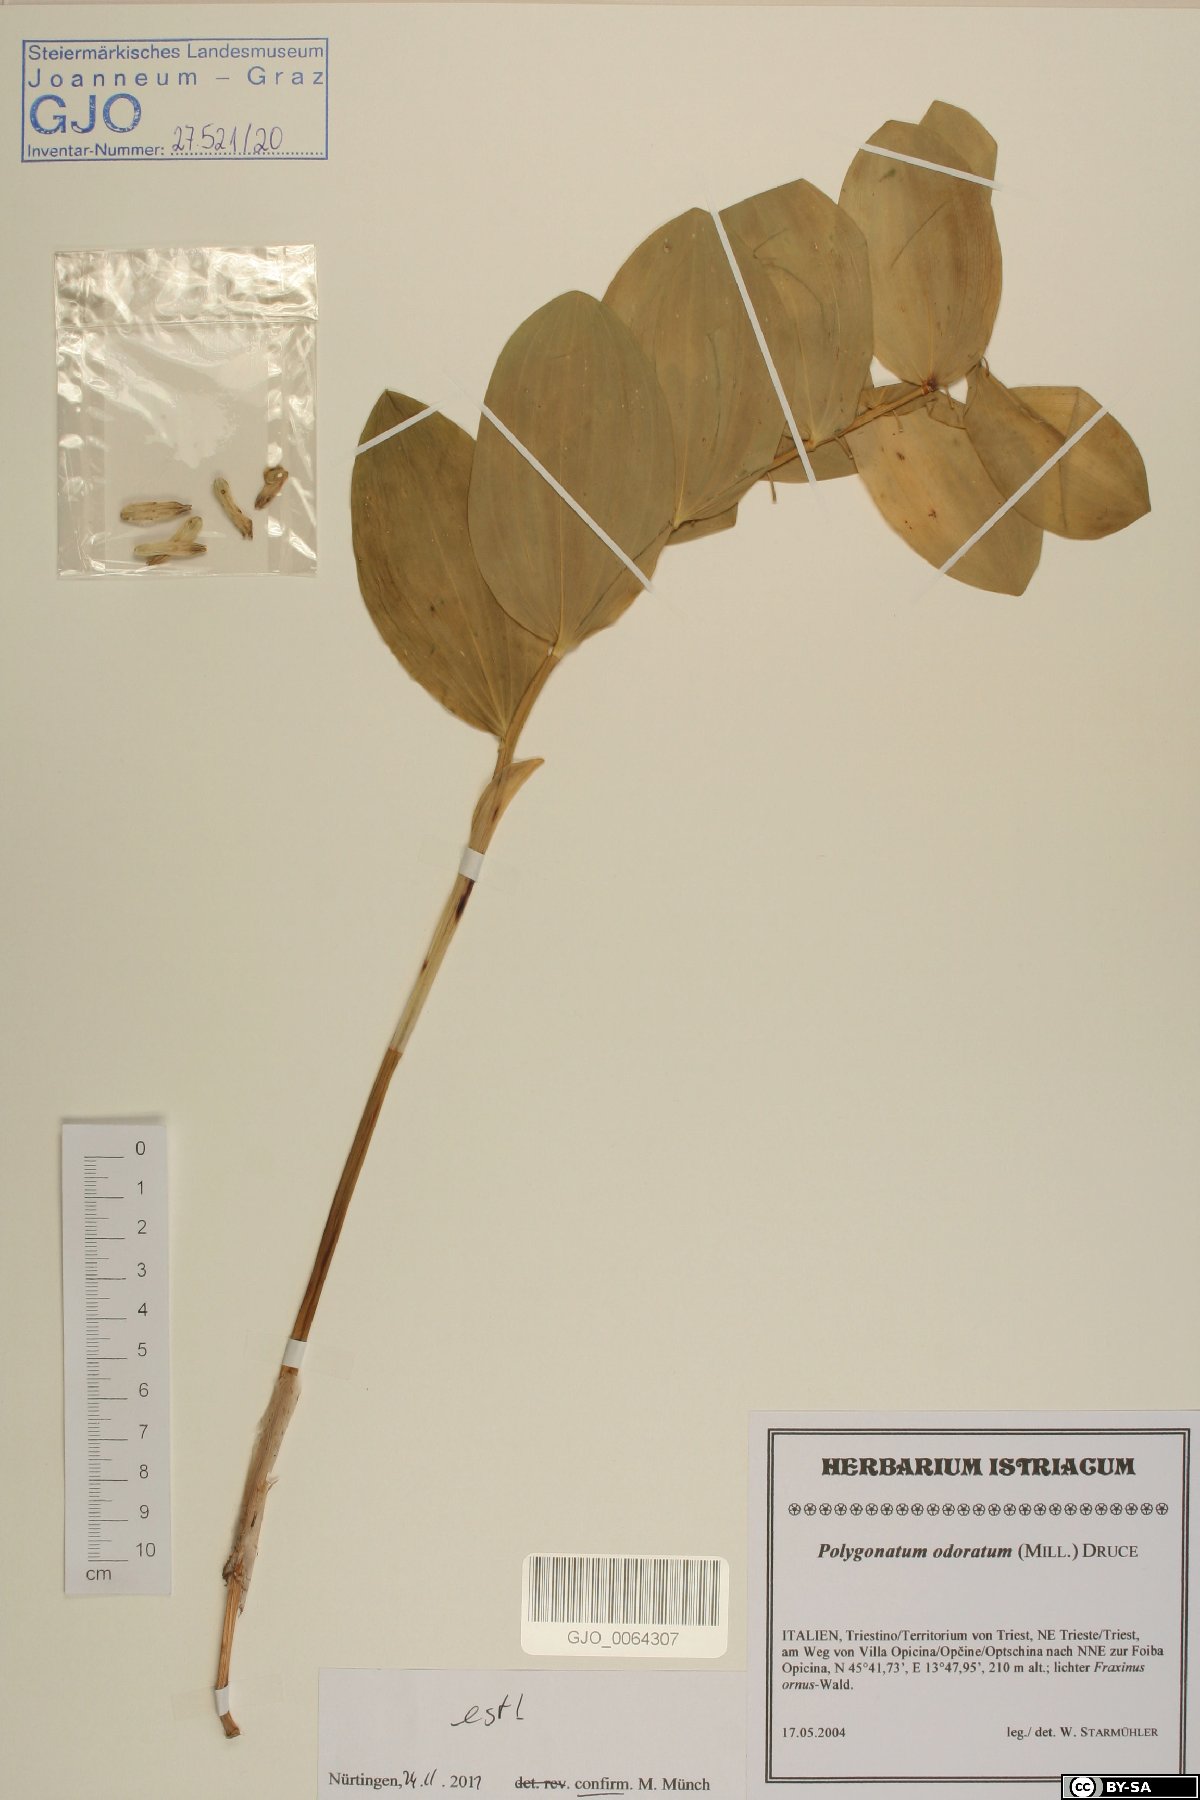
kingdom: Plantae
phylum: Tracheophyta
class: Liliopsida
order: Asparagales
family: Asparagaceae
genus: Polygonatum
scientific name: Polygonatum odoratum
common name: Angular solomon's-seal
